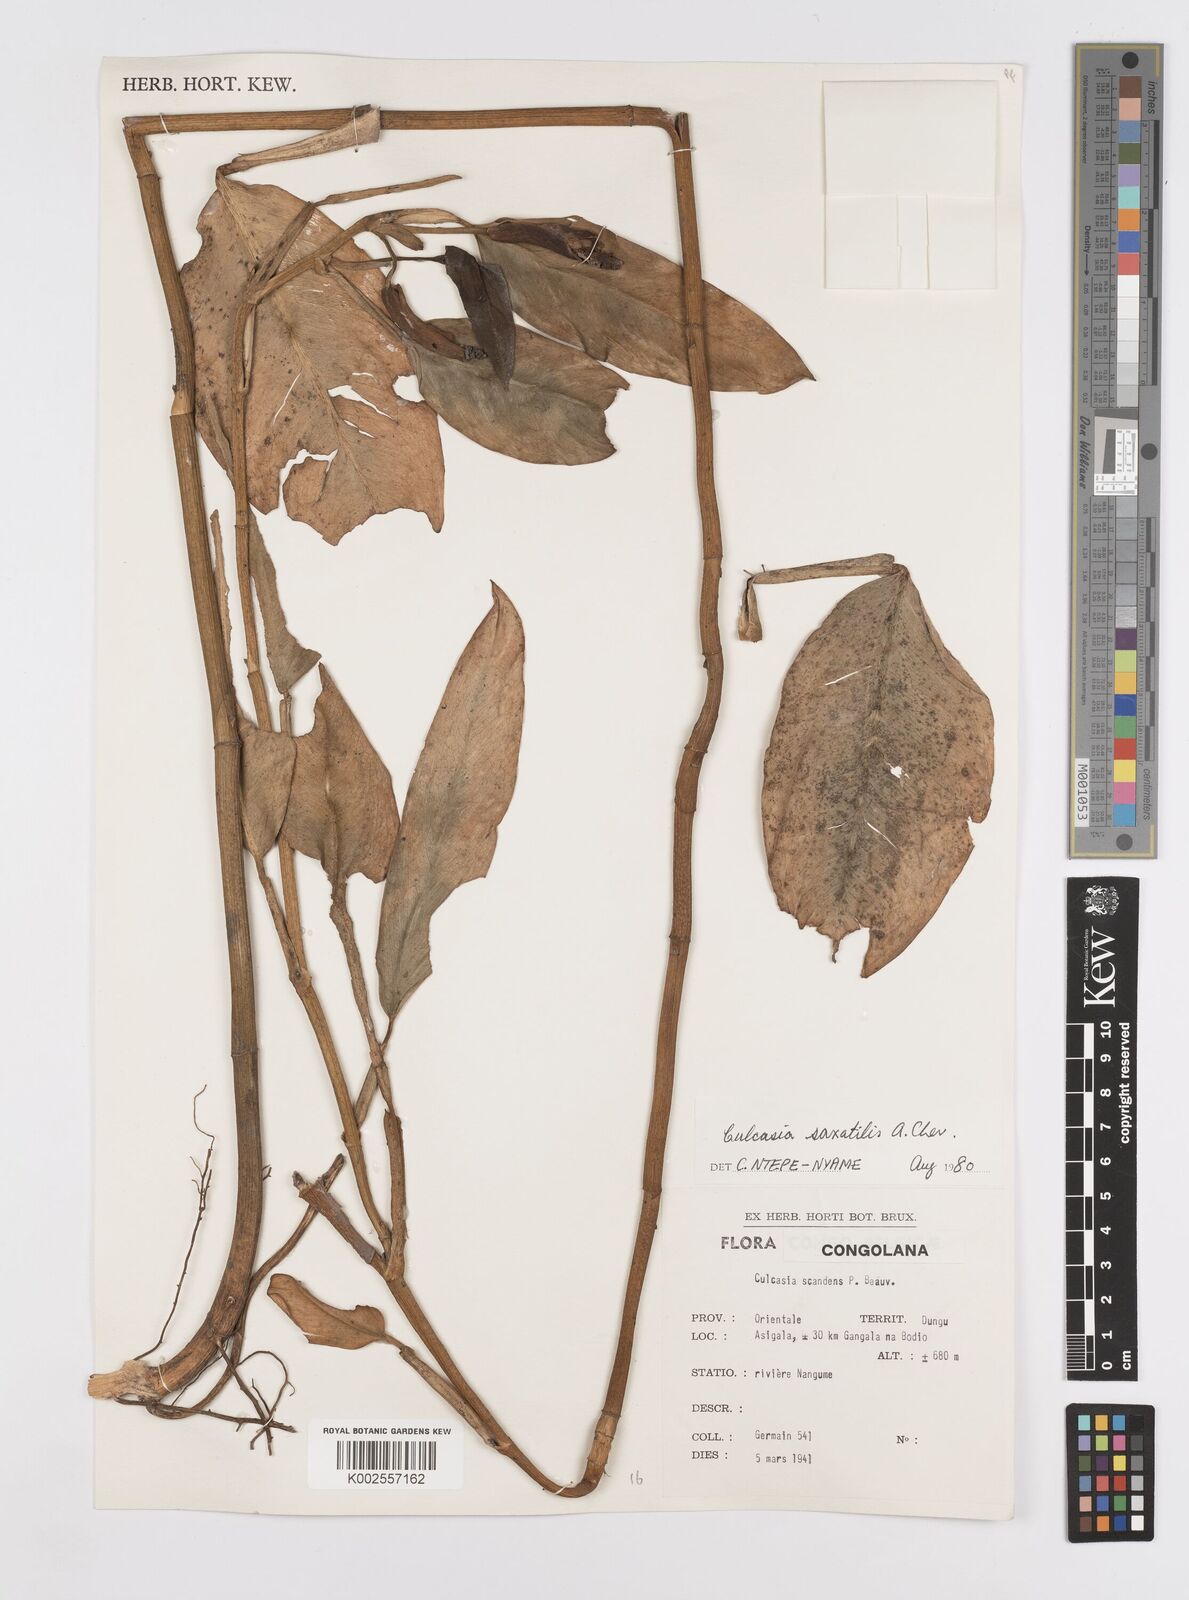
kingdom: Plantae
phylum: Tracheophyta
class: Liliopsida
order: Alismatales
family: Araceae
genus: Culcasia
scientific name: Culcasia scandens
